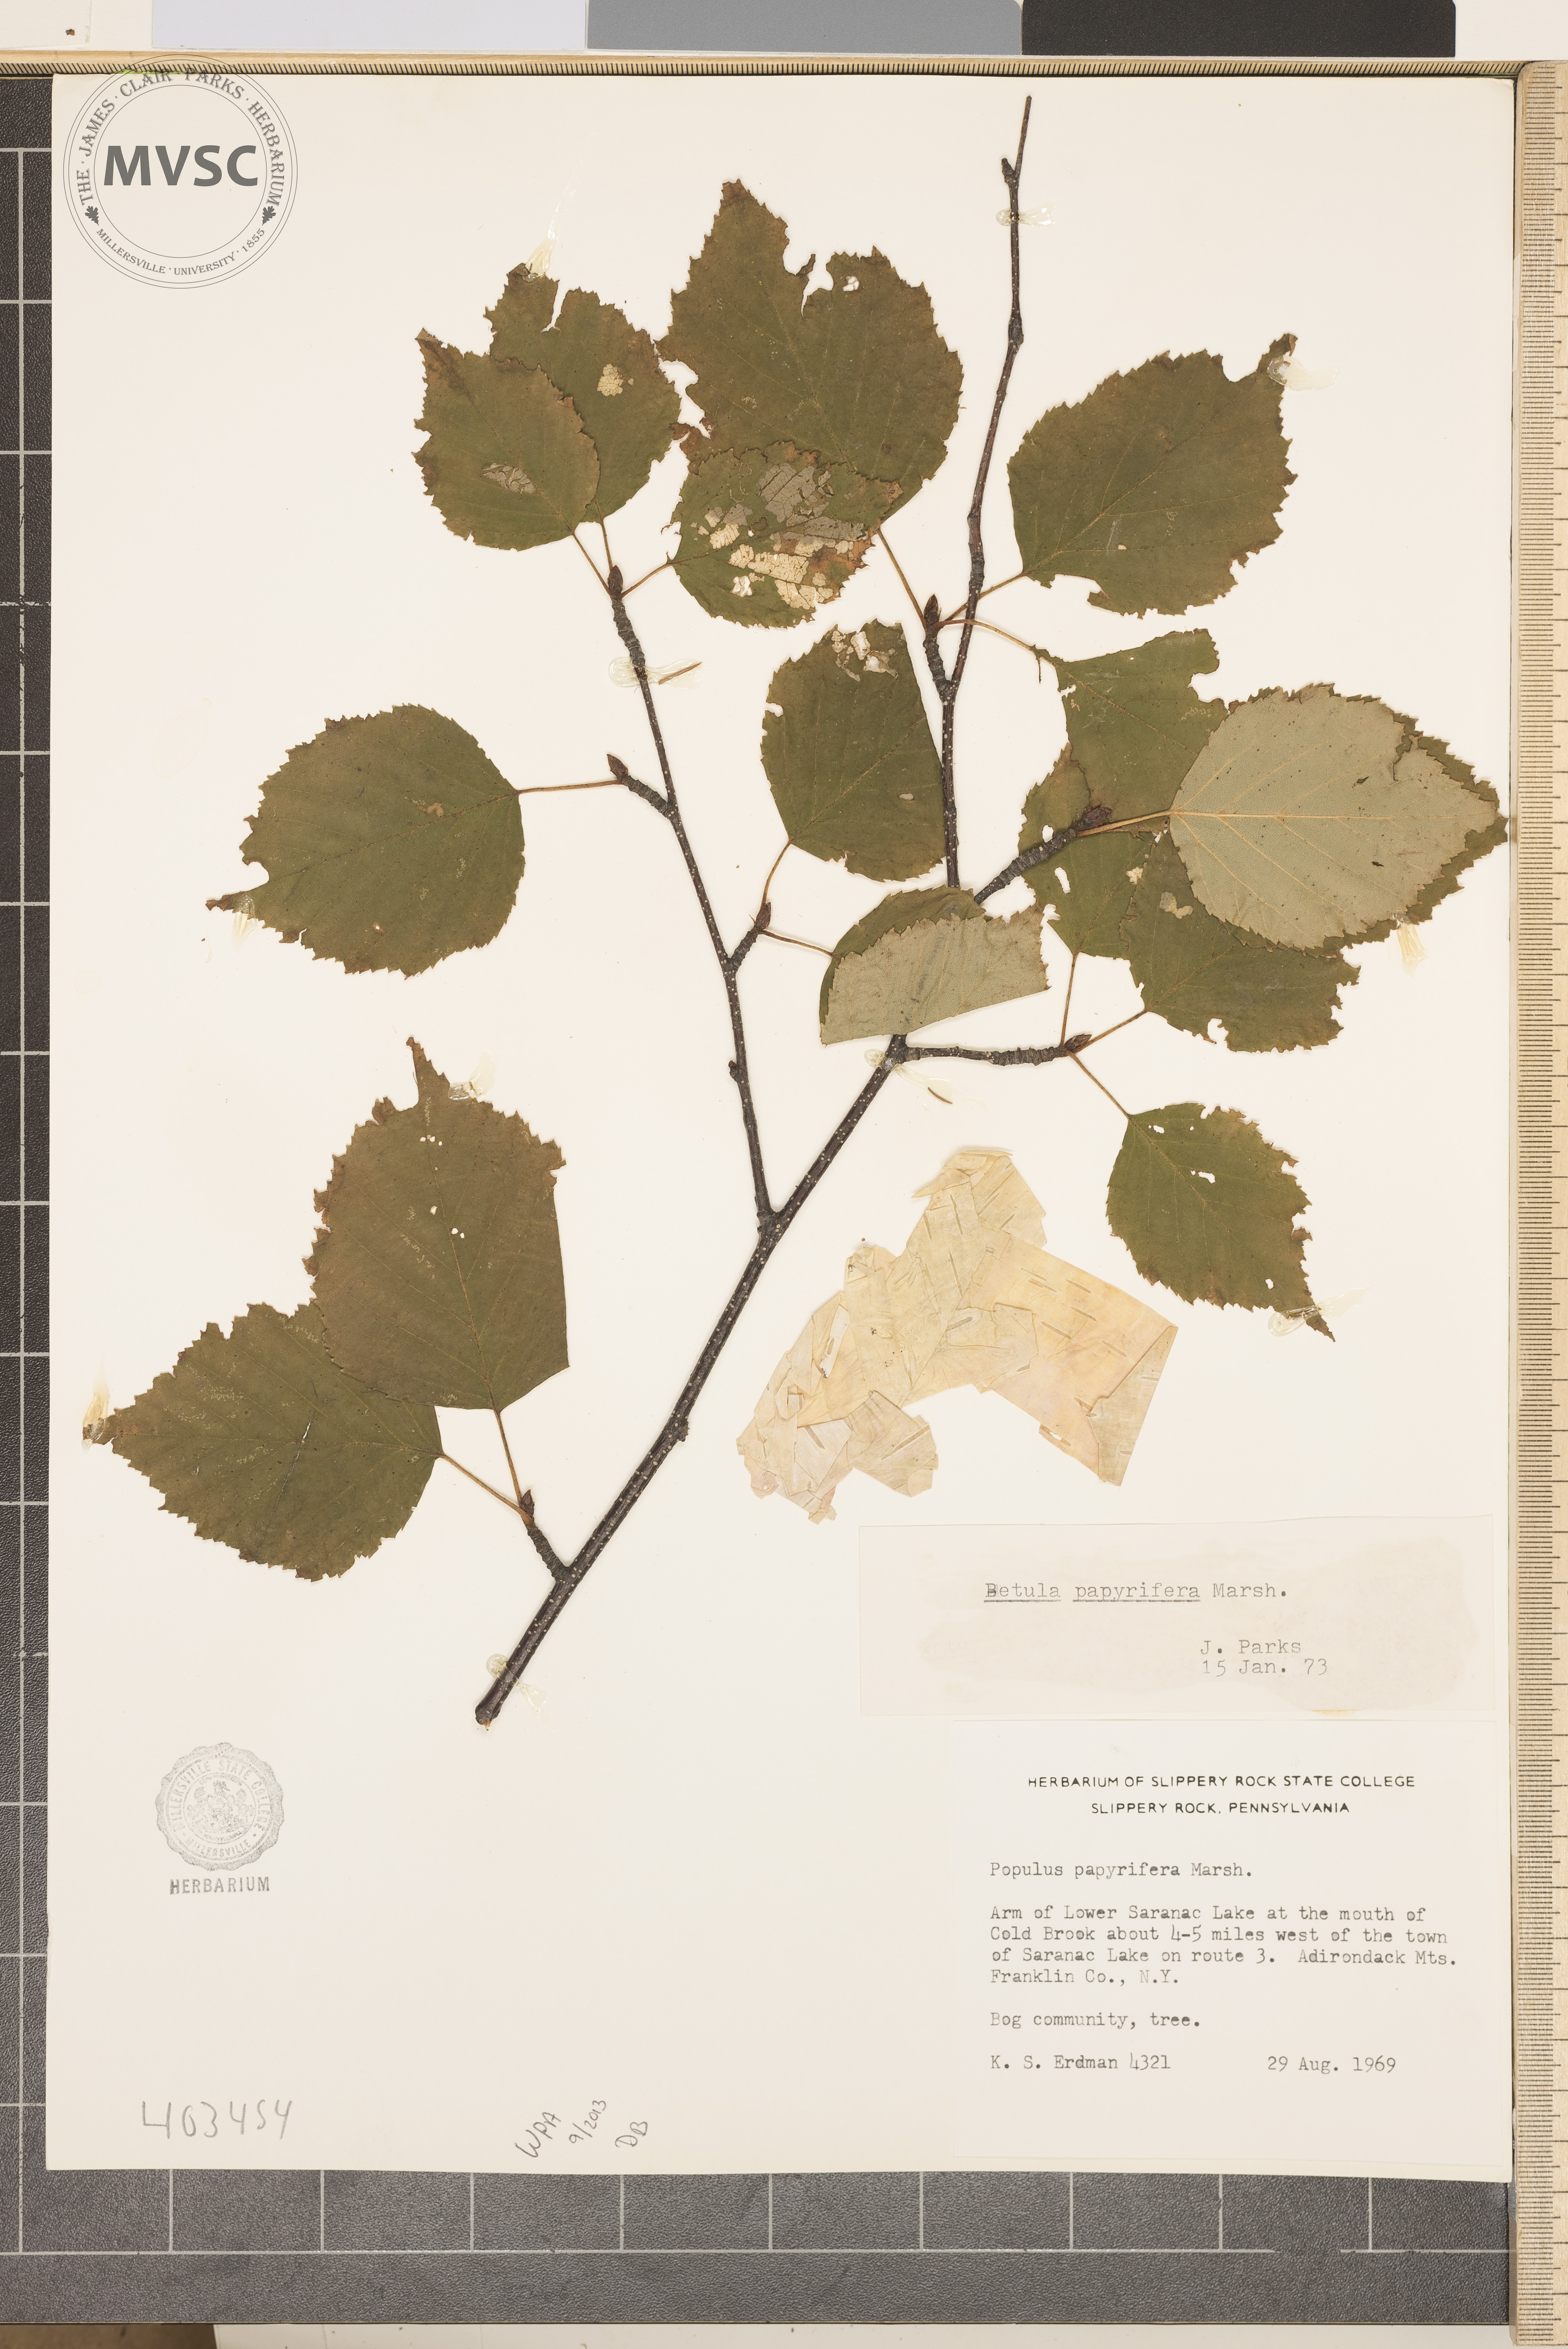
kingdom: Plantae
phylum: Tracheophyta
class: Magnoliopsida
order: Fagales
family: Betulaceae
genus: Betula
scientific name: Betula papyrifera
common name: Paper Birch
